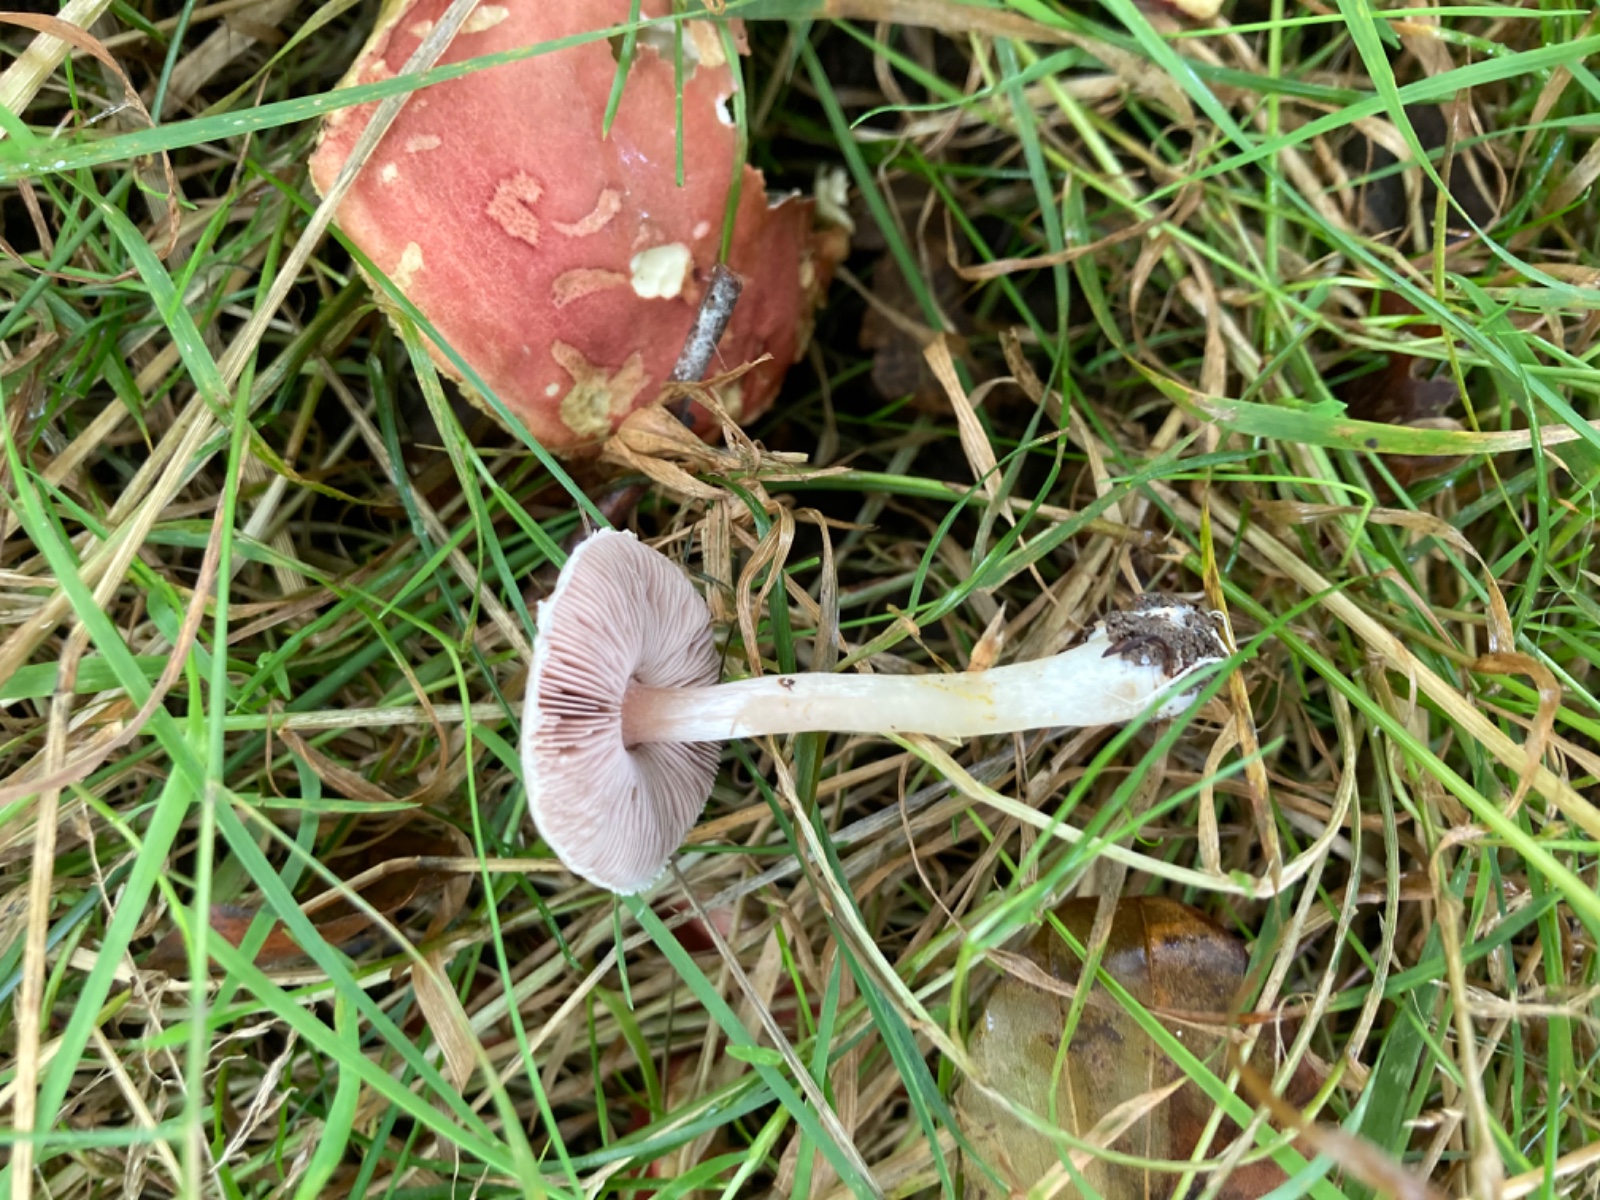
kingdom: Fungi
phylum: Basidiomycota
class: Agaricomycetes
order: Agaricales
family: Agaricaceae
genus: Agaricus
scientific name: Agaricus dulcidulus
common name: blegrød champignon
